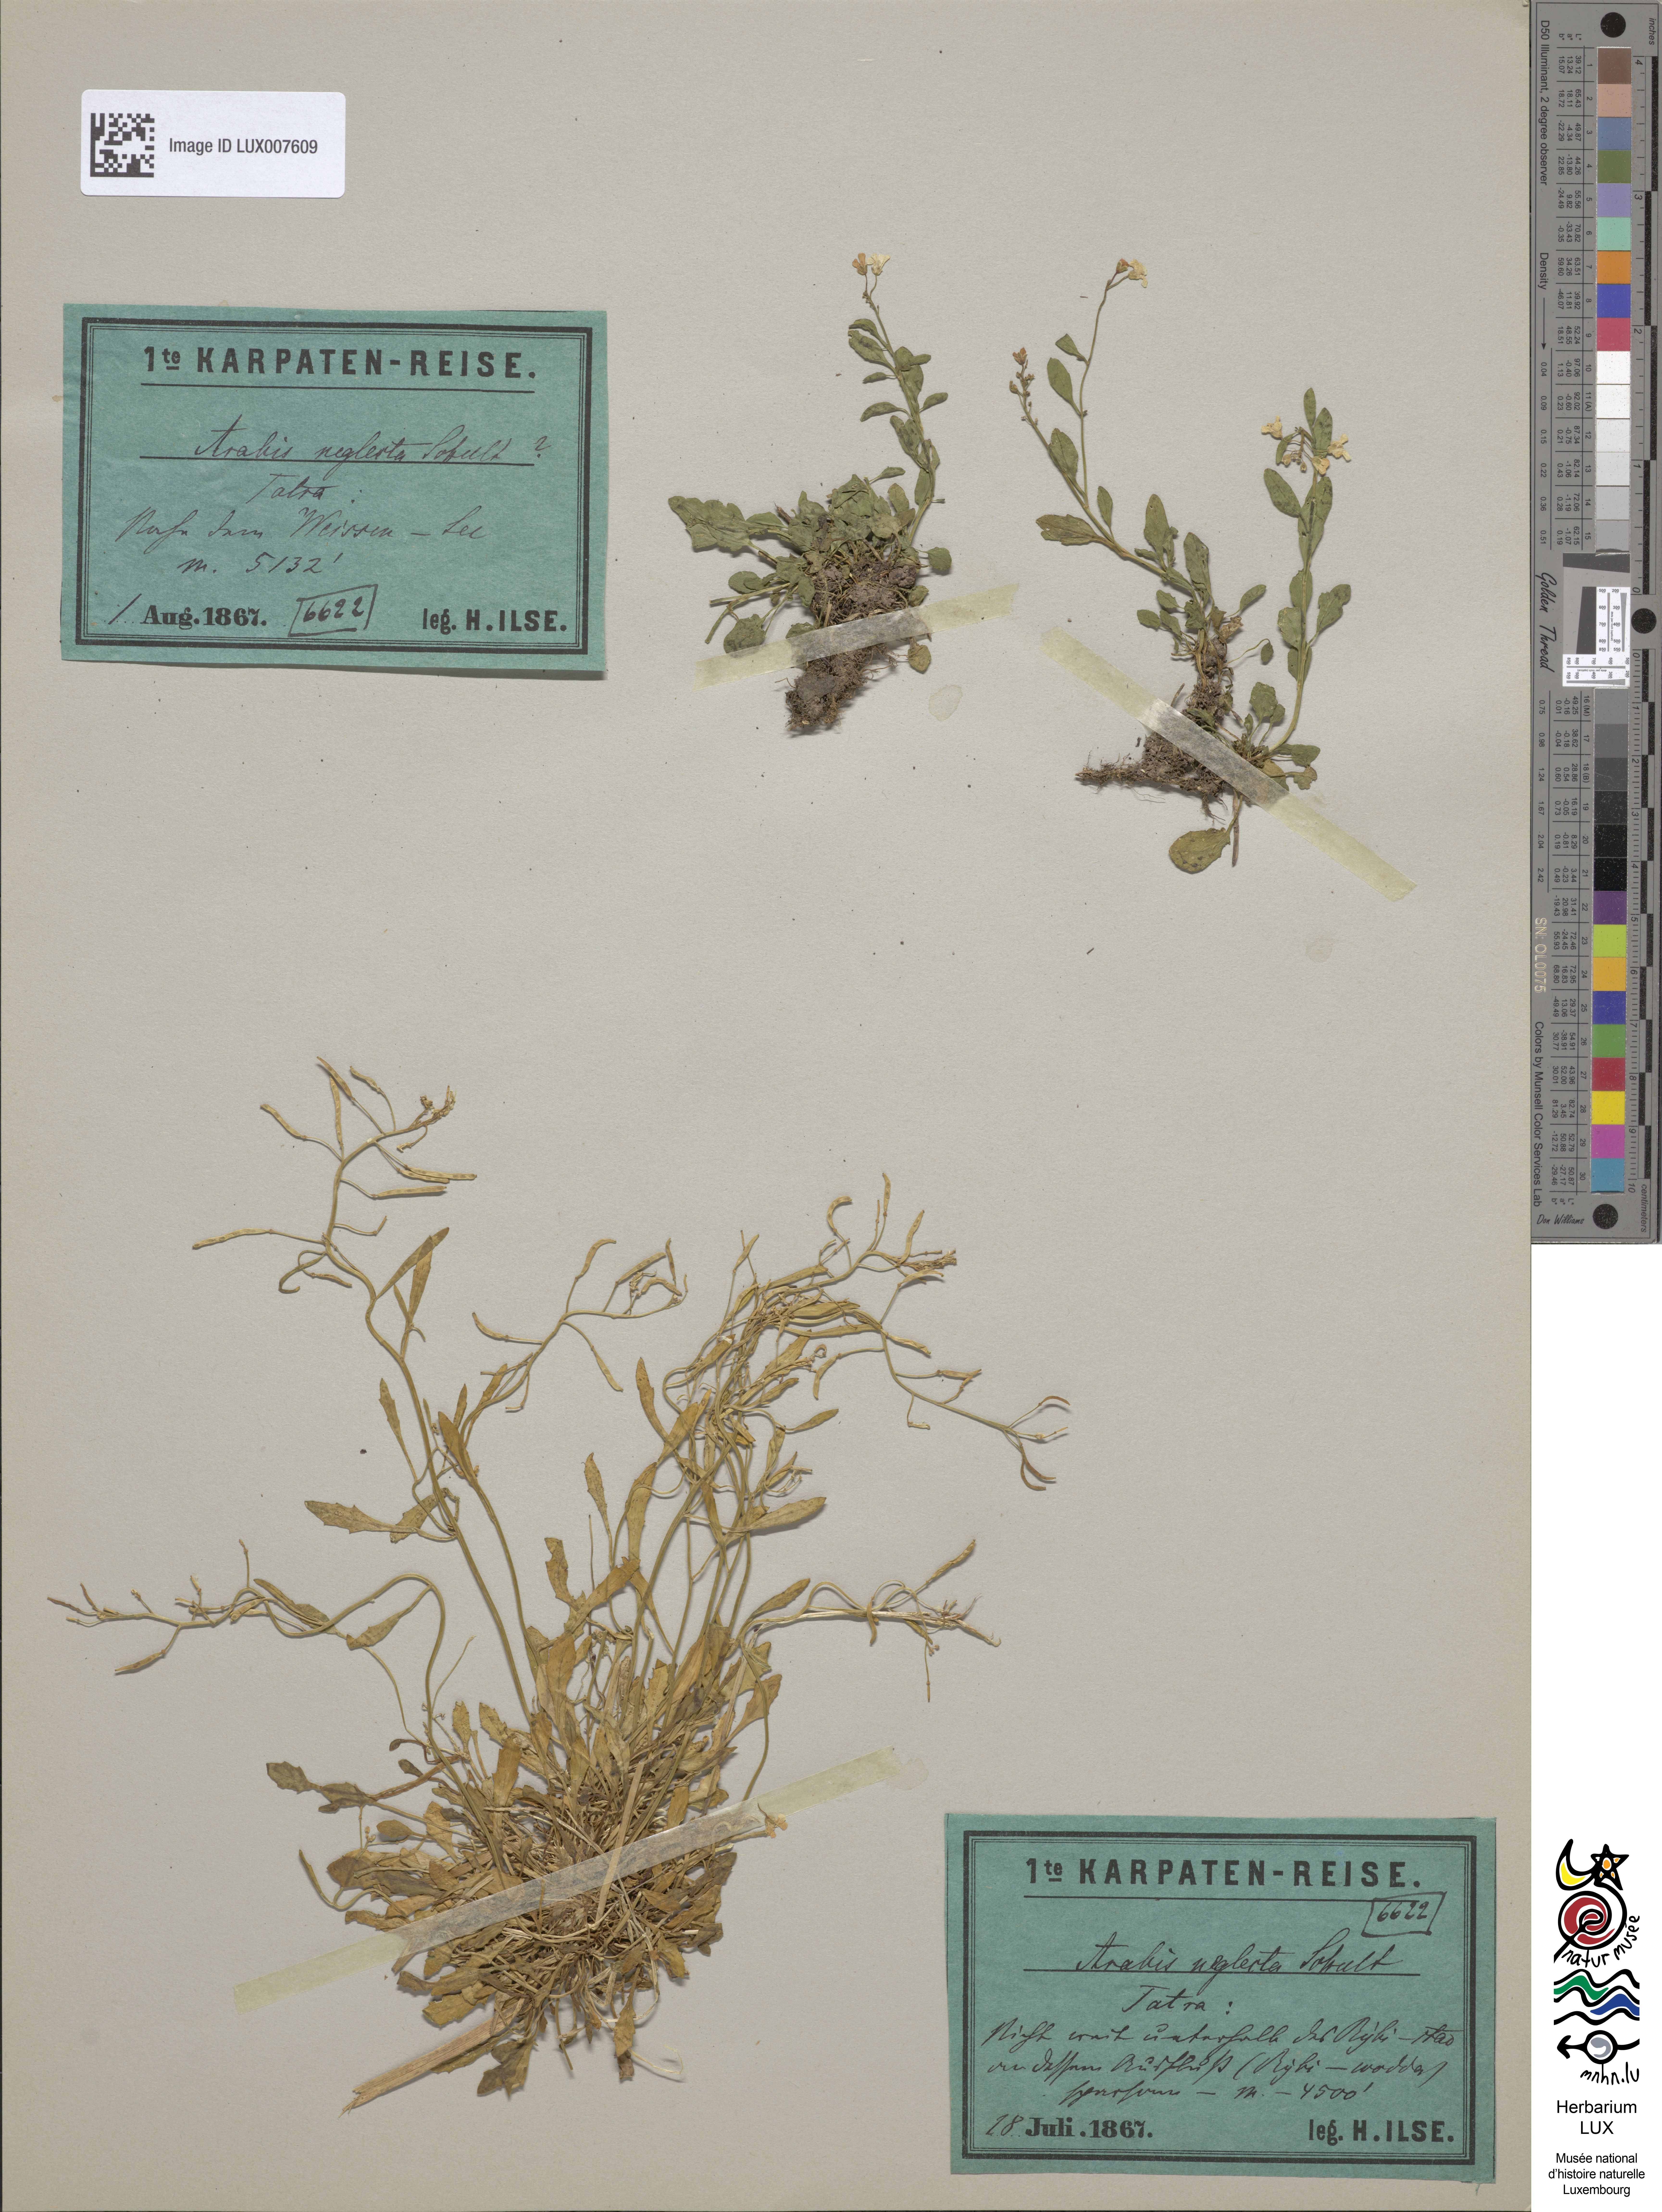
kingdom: Plantae
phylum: Tracheophyta
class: Magnoliopsida
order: Brassicales
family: Brassicaceae
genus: Arabidopsis
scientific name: Arabidopsis neglecta
